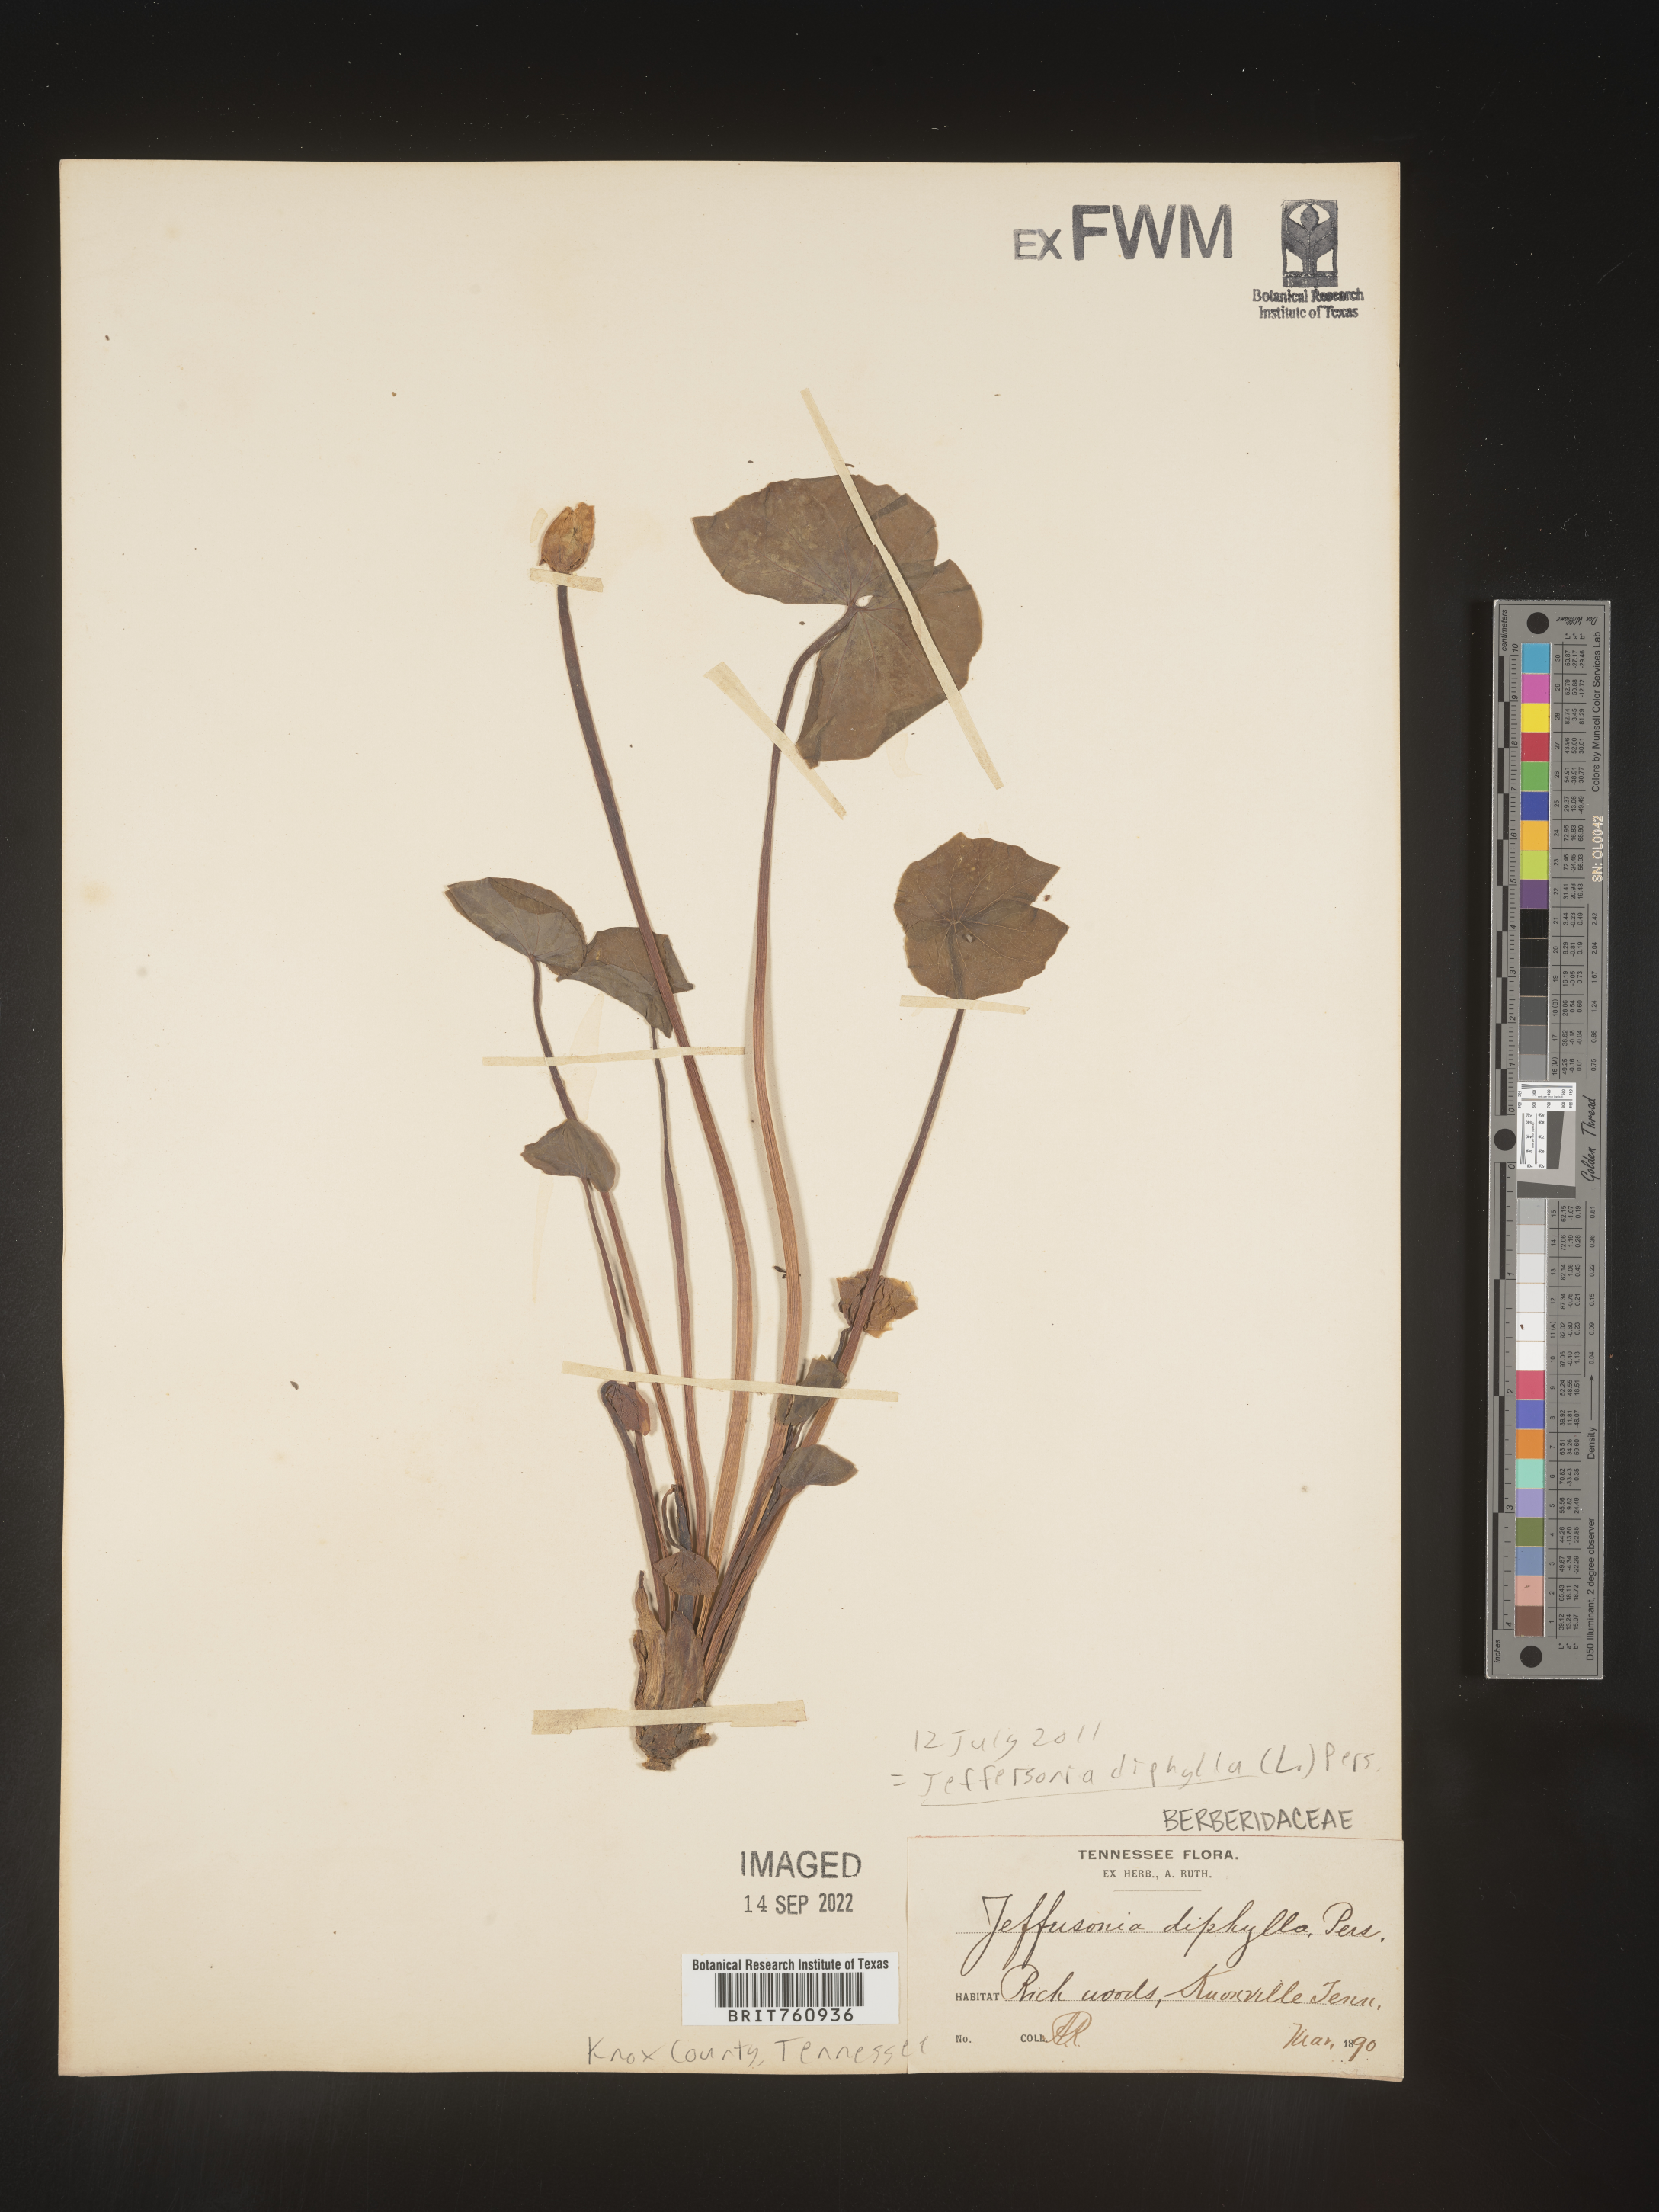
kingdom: Plantae
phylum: Tracheophyta
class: Magnoliopsida
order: Ranunculales
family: Berberidaceae
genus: Jeffersonia
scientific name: Jeffersonia
